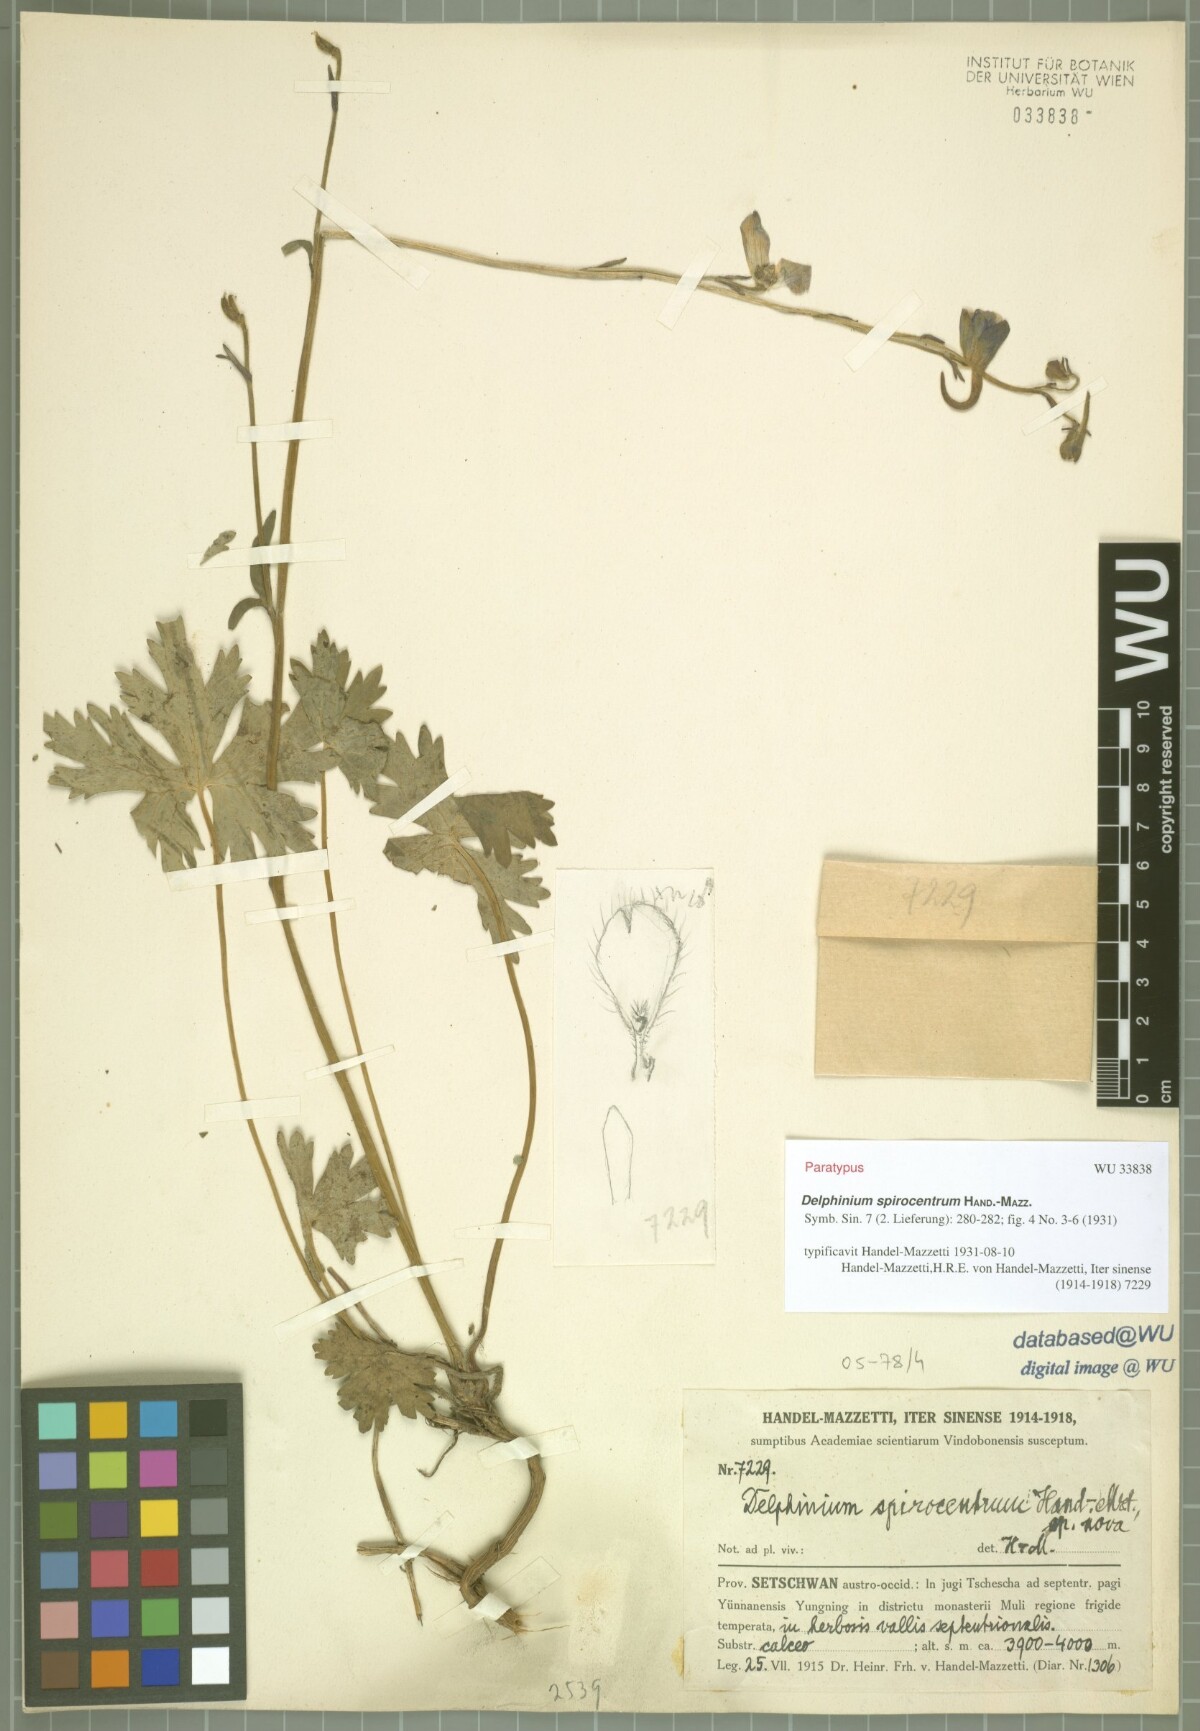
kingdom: Plantae
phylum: Tracheophyta
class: Magnoliopsida
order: Ranunculales
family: Ranunculaceae
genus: Delphinium
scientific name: Delphinium spirocentrum
